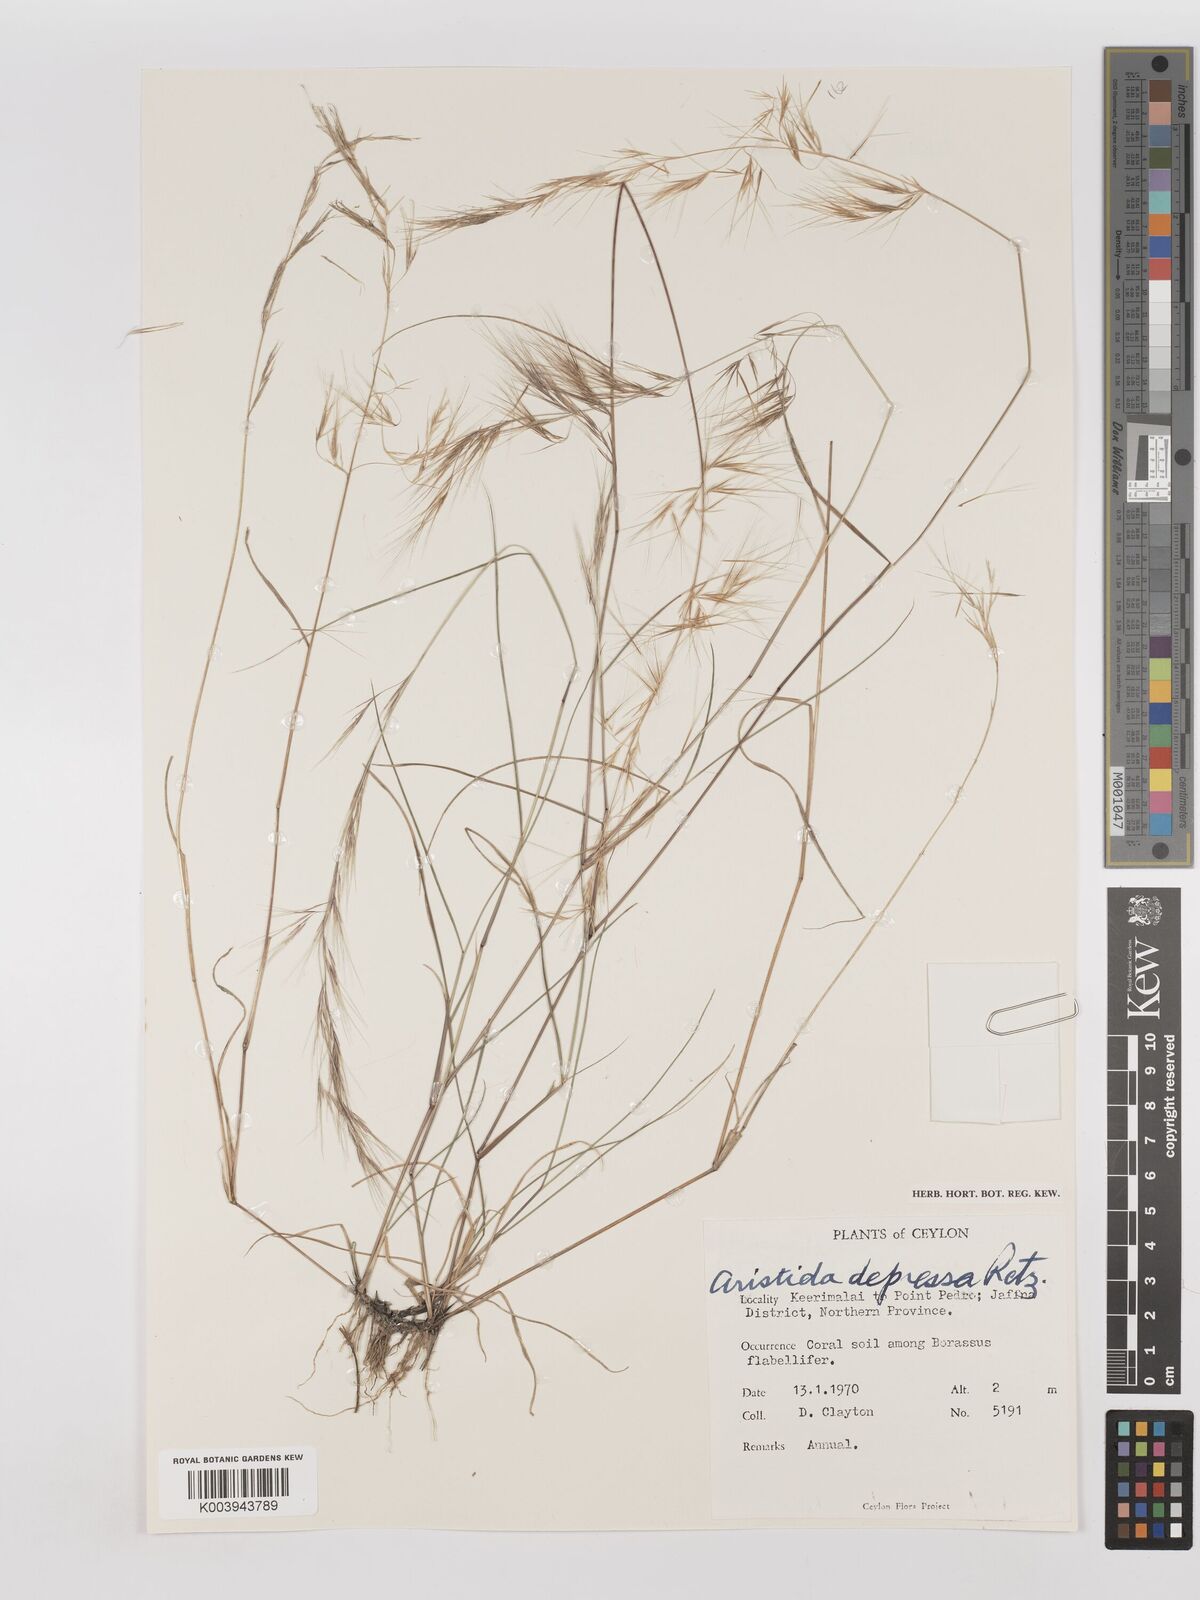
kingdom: Plantae
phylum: Tracheophyta
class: Liliopsida
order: Poales
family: Poaceae
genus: Aristida
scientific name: Aristida adscensionis
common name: Sixweeks threeawn
